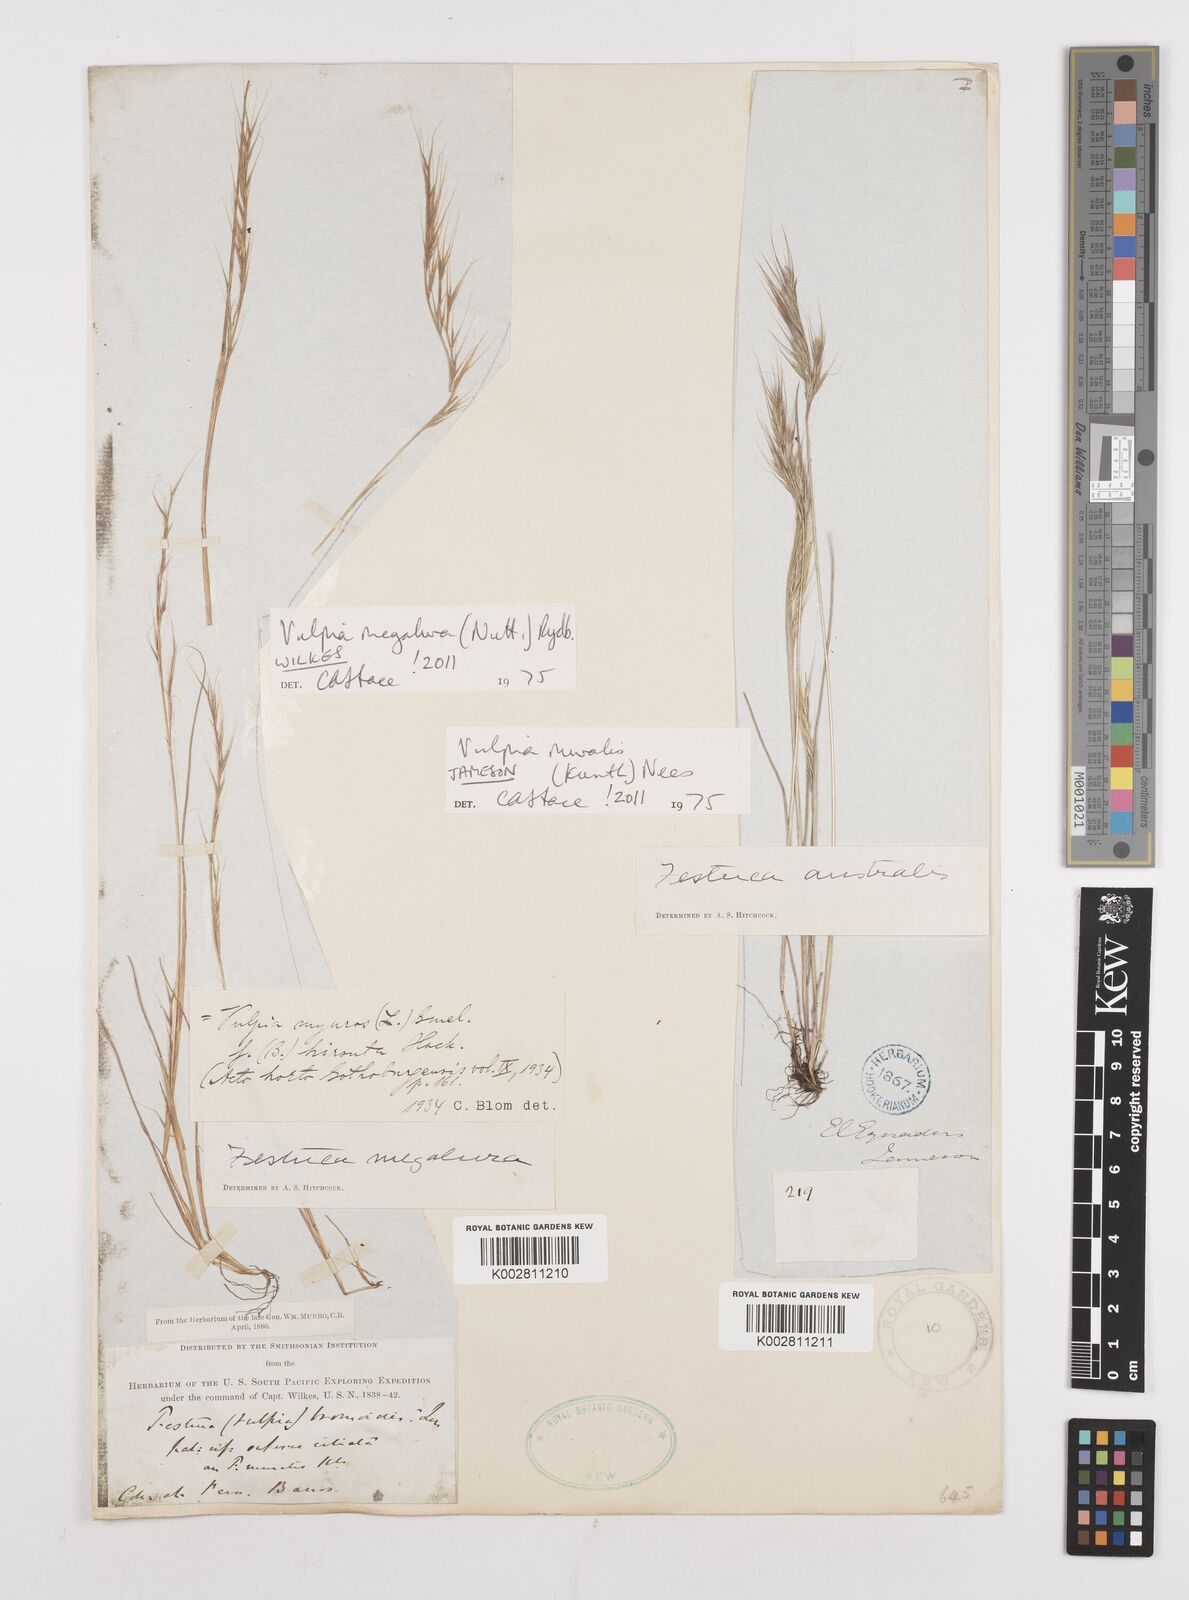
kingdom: Plantae
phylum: Tracheophyta
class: Liliopsida
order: Poales
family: Poaceae
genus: Festuca
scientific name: Festuca
